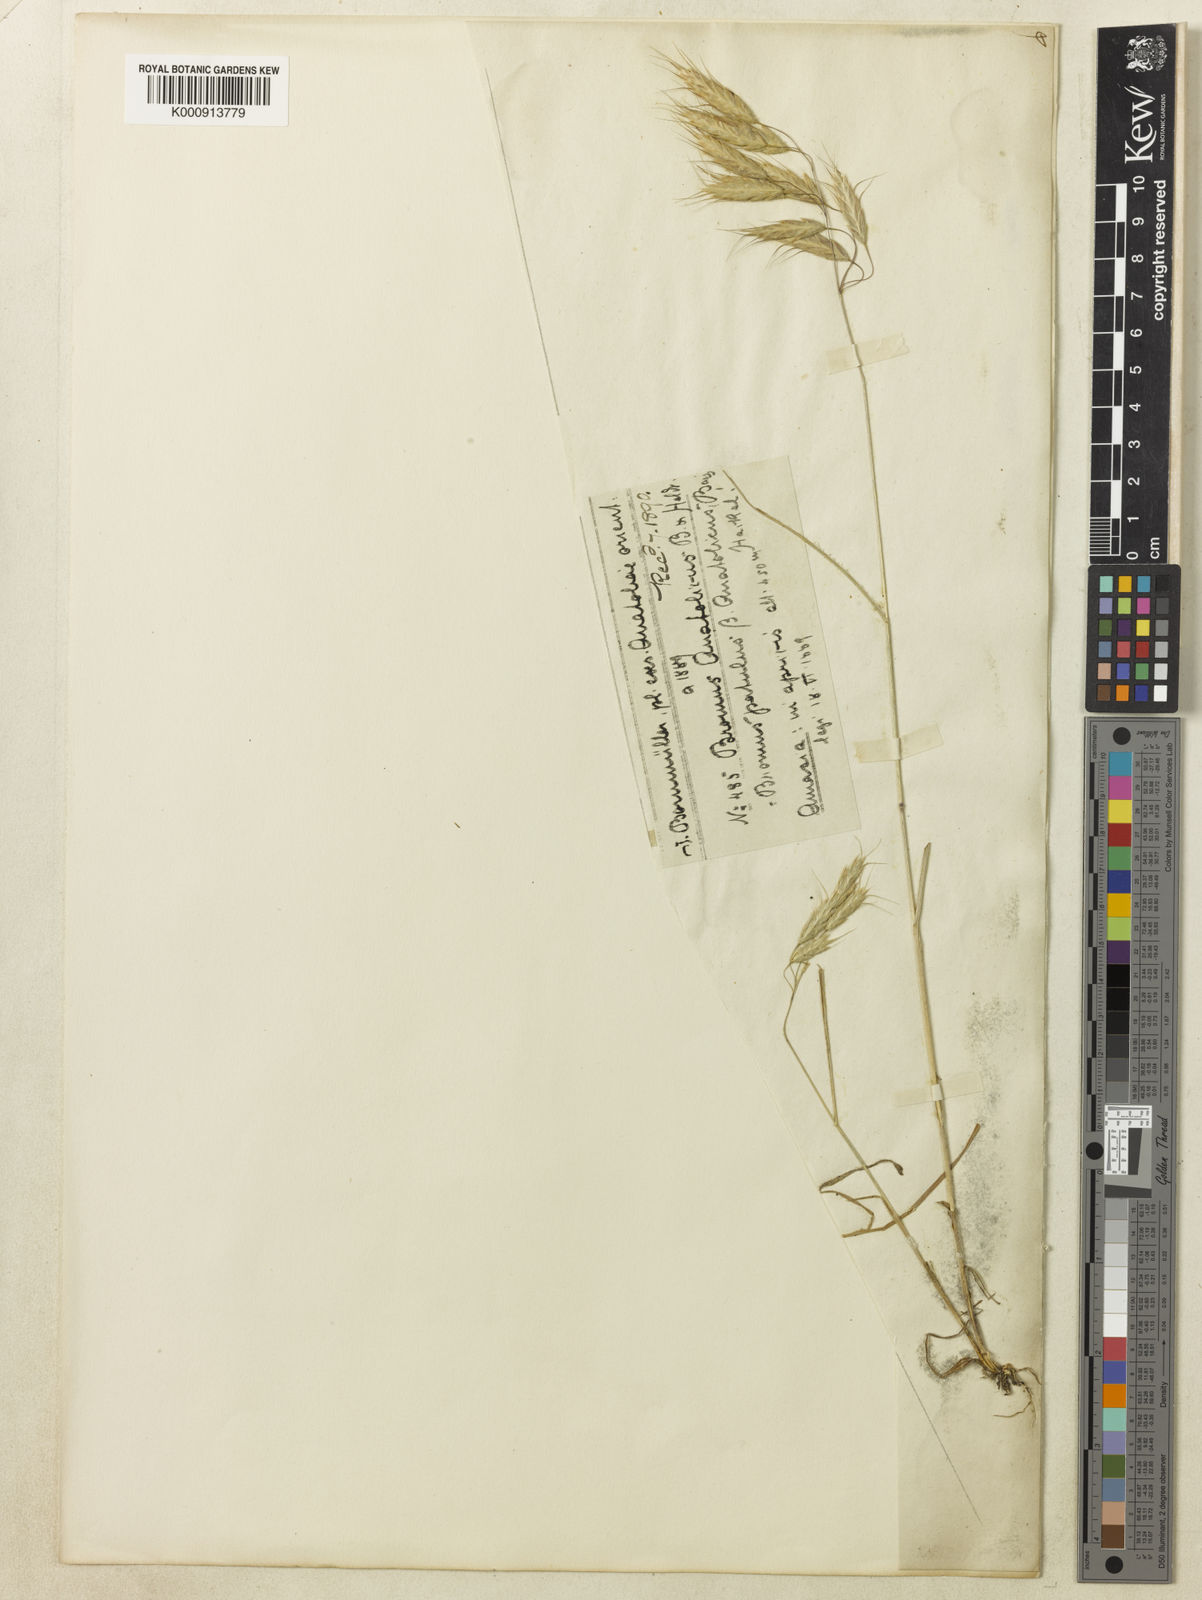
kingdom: Plantae
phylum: Tracheophyta
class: Liliopsida
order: Poales
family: Poaceae
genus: Bromus
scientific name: Bromus
